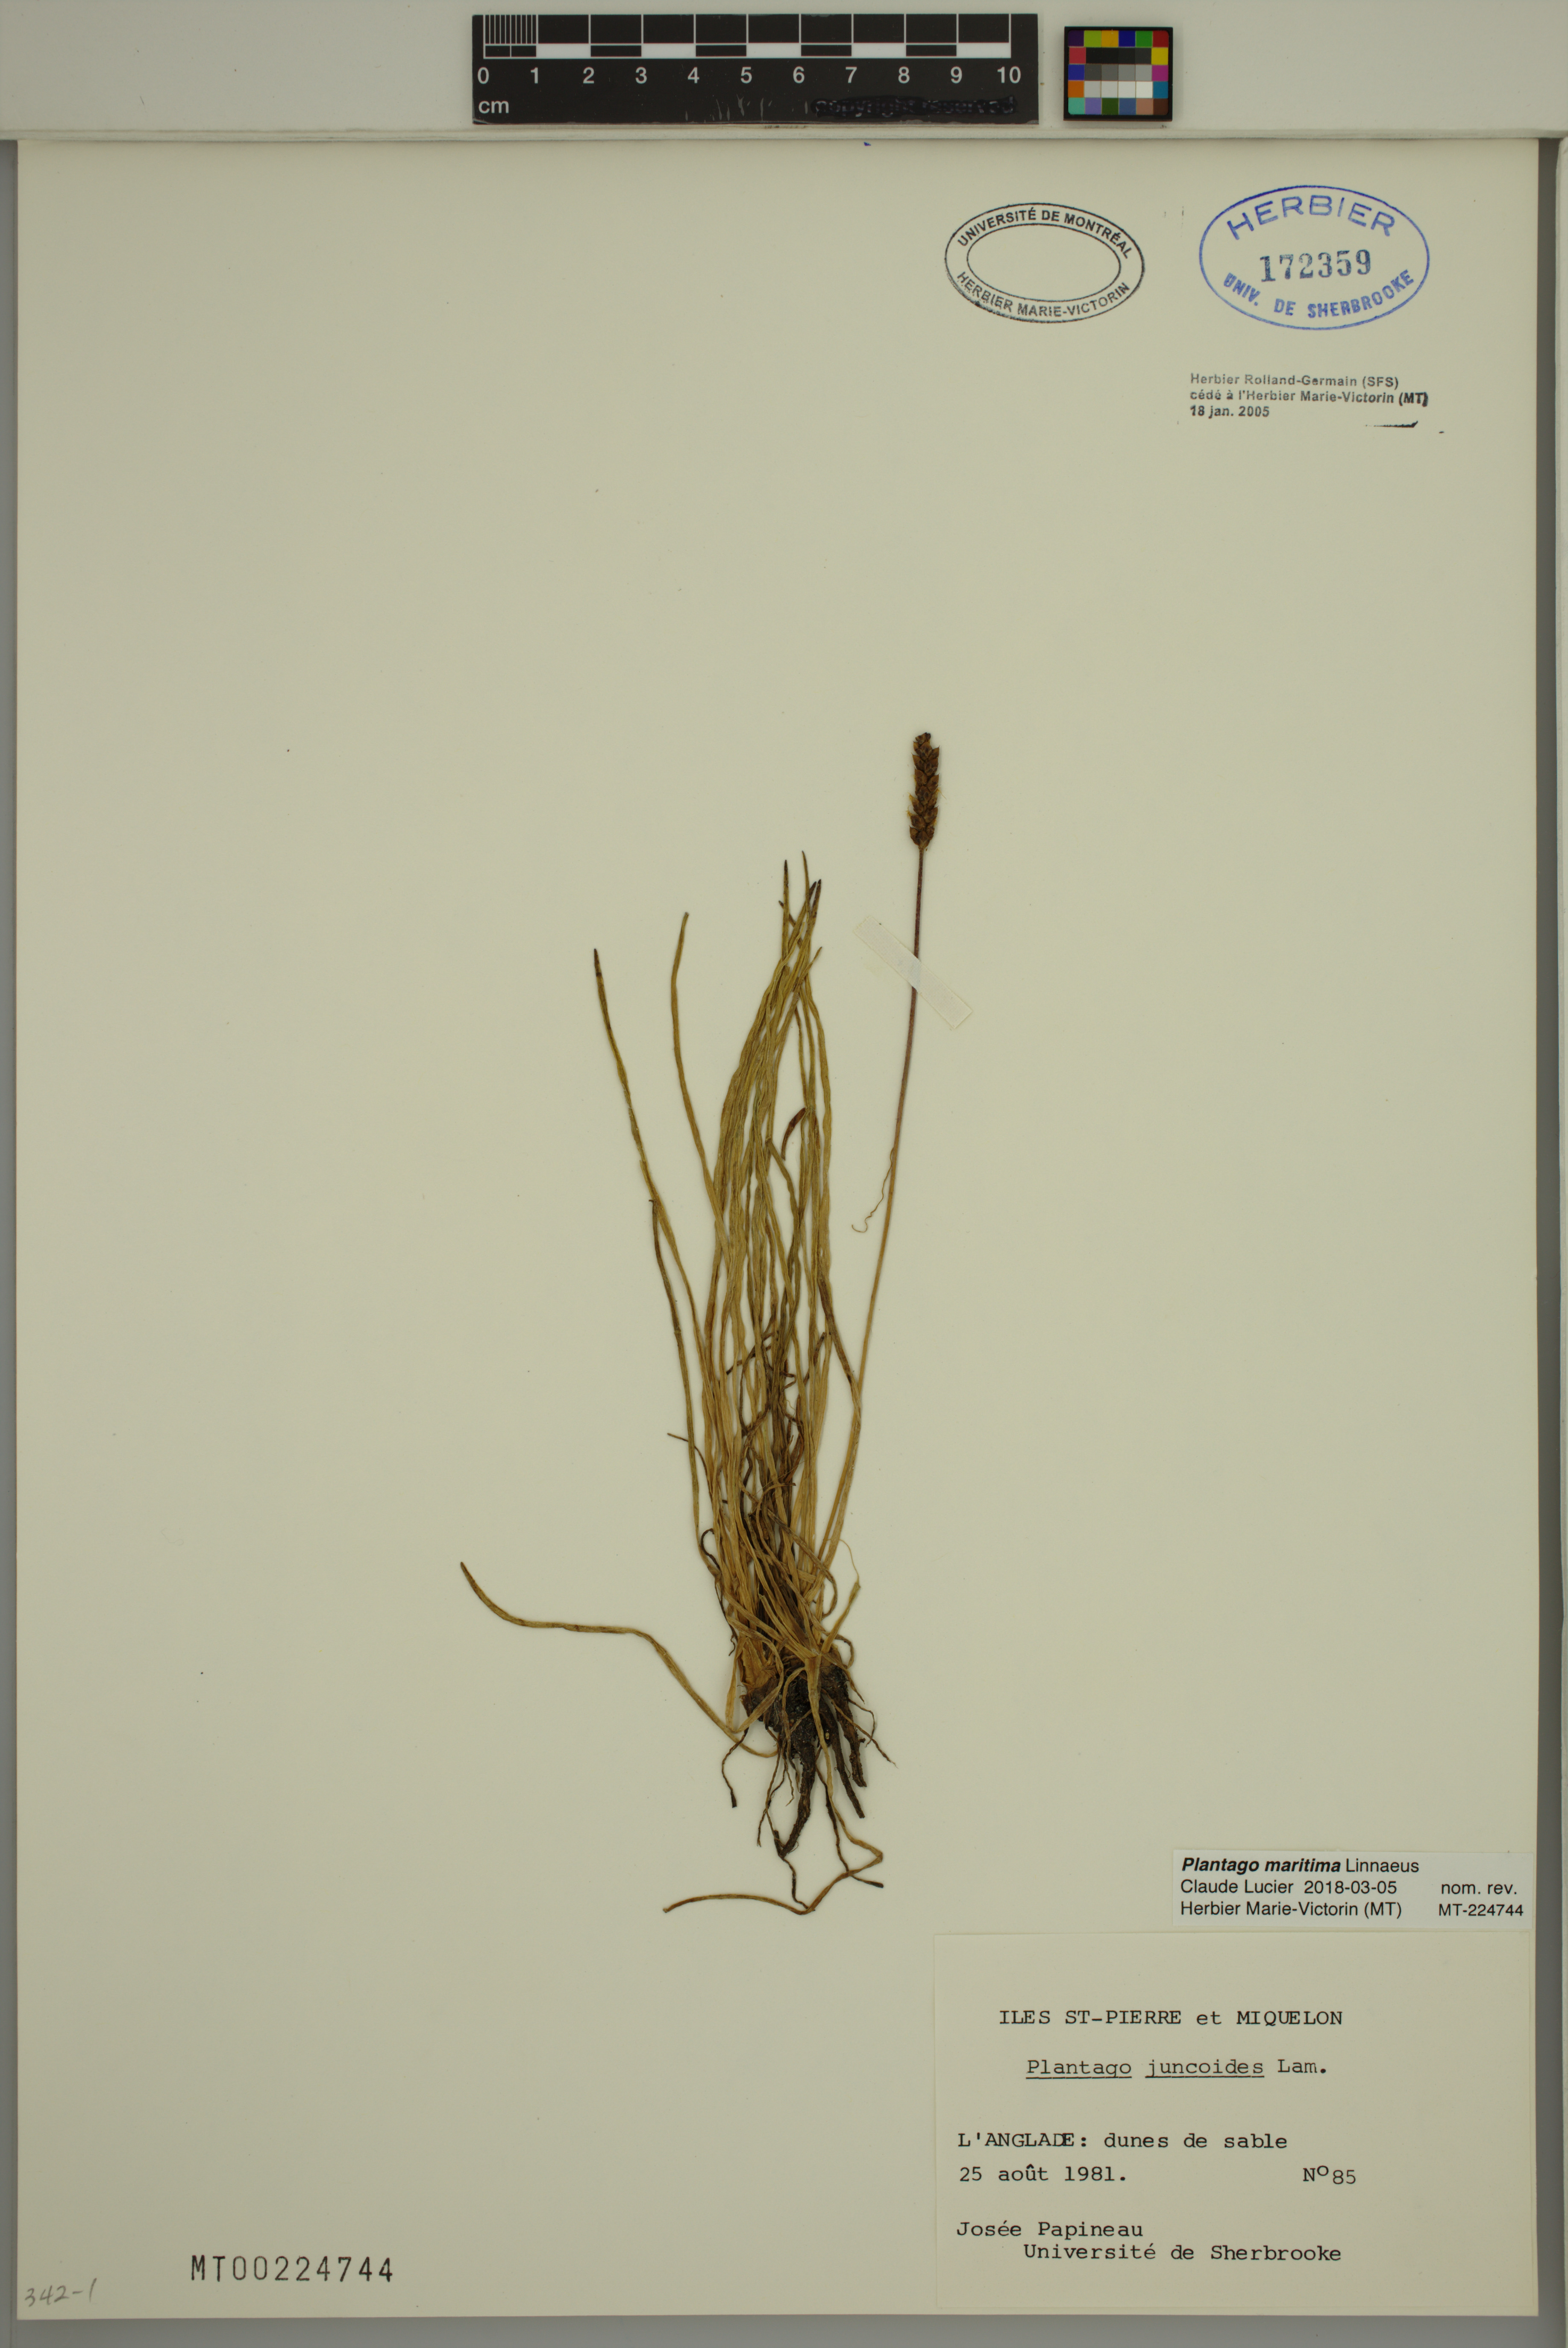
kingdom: Plantae
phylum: Tracheophyta
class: Magnoliopsida
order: Lamiales
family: Plantaginaceae
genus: Plantago
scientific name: Plantago maritima
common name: Sea plantain
